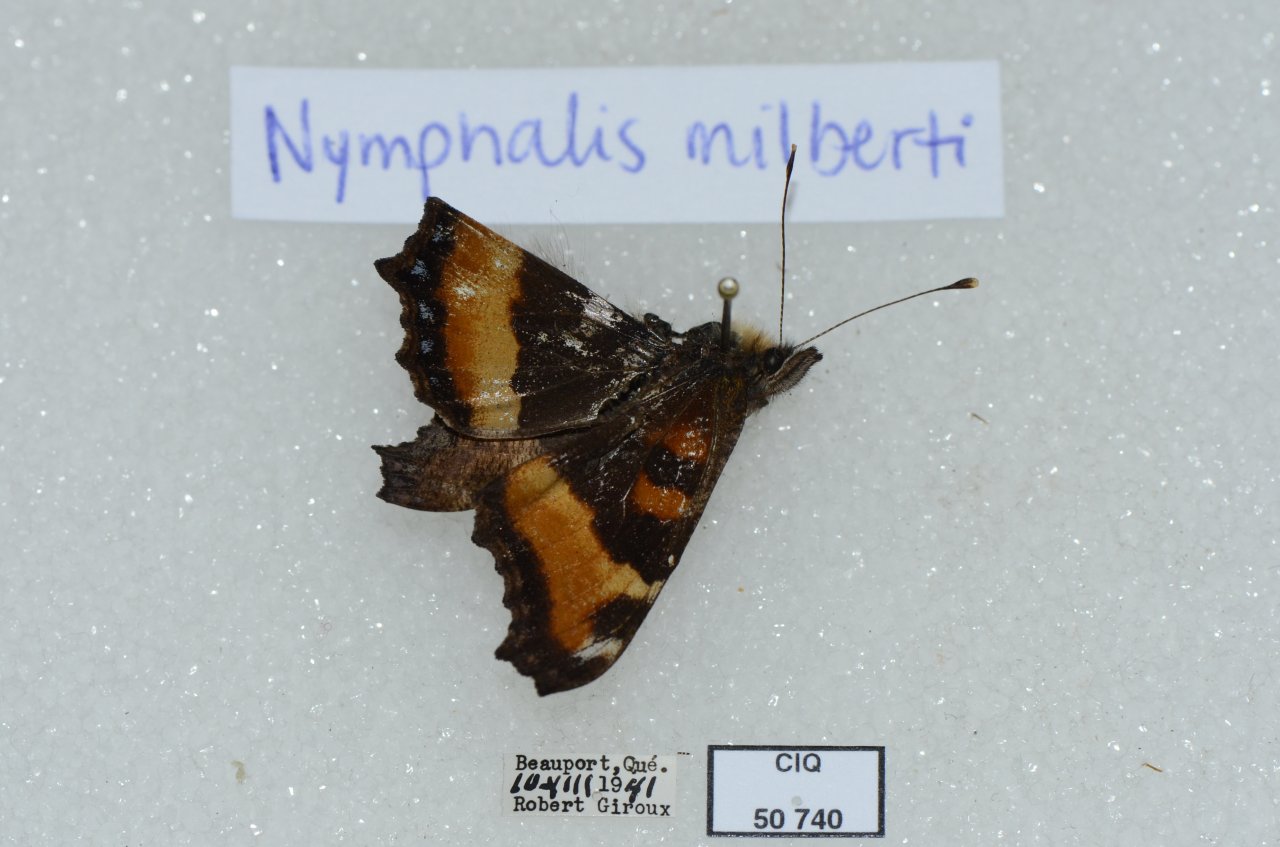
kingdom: Animalia
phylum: Arthropoda
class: Insecta
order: Lepidoptera
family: Nymphalidae
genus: Aglais
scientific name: Aglais milberti
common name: Milbert's Tortoiseshell
